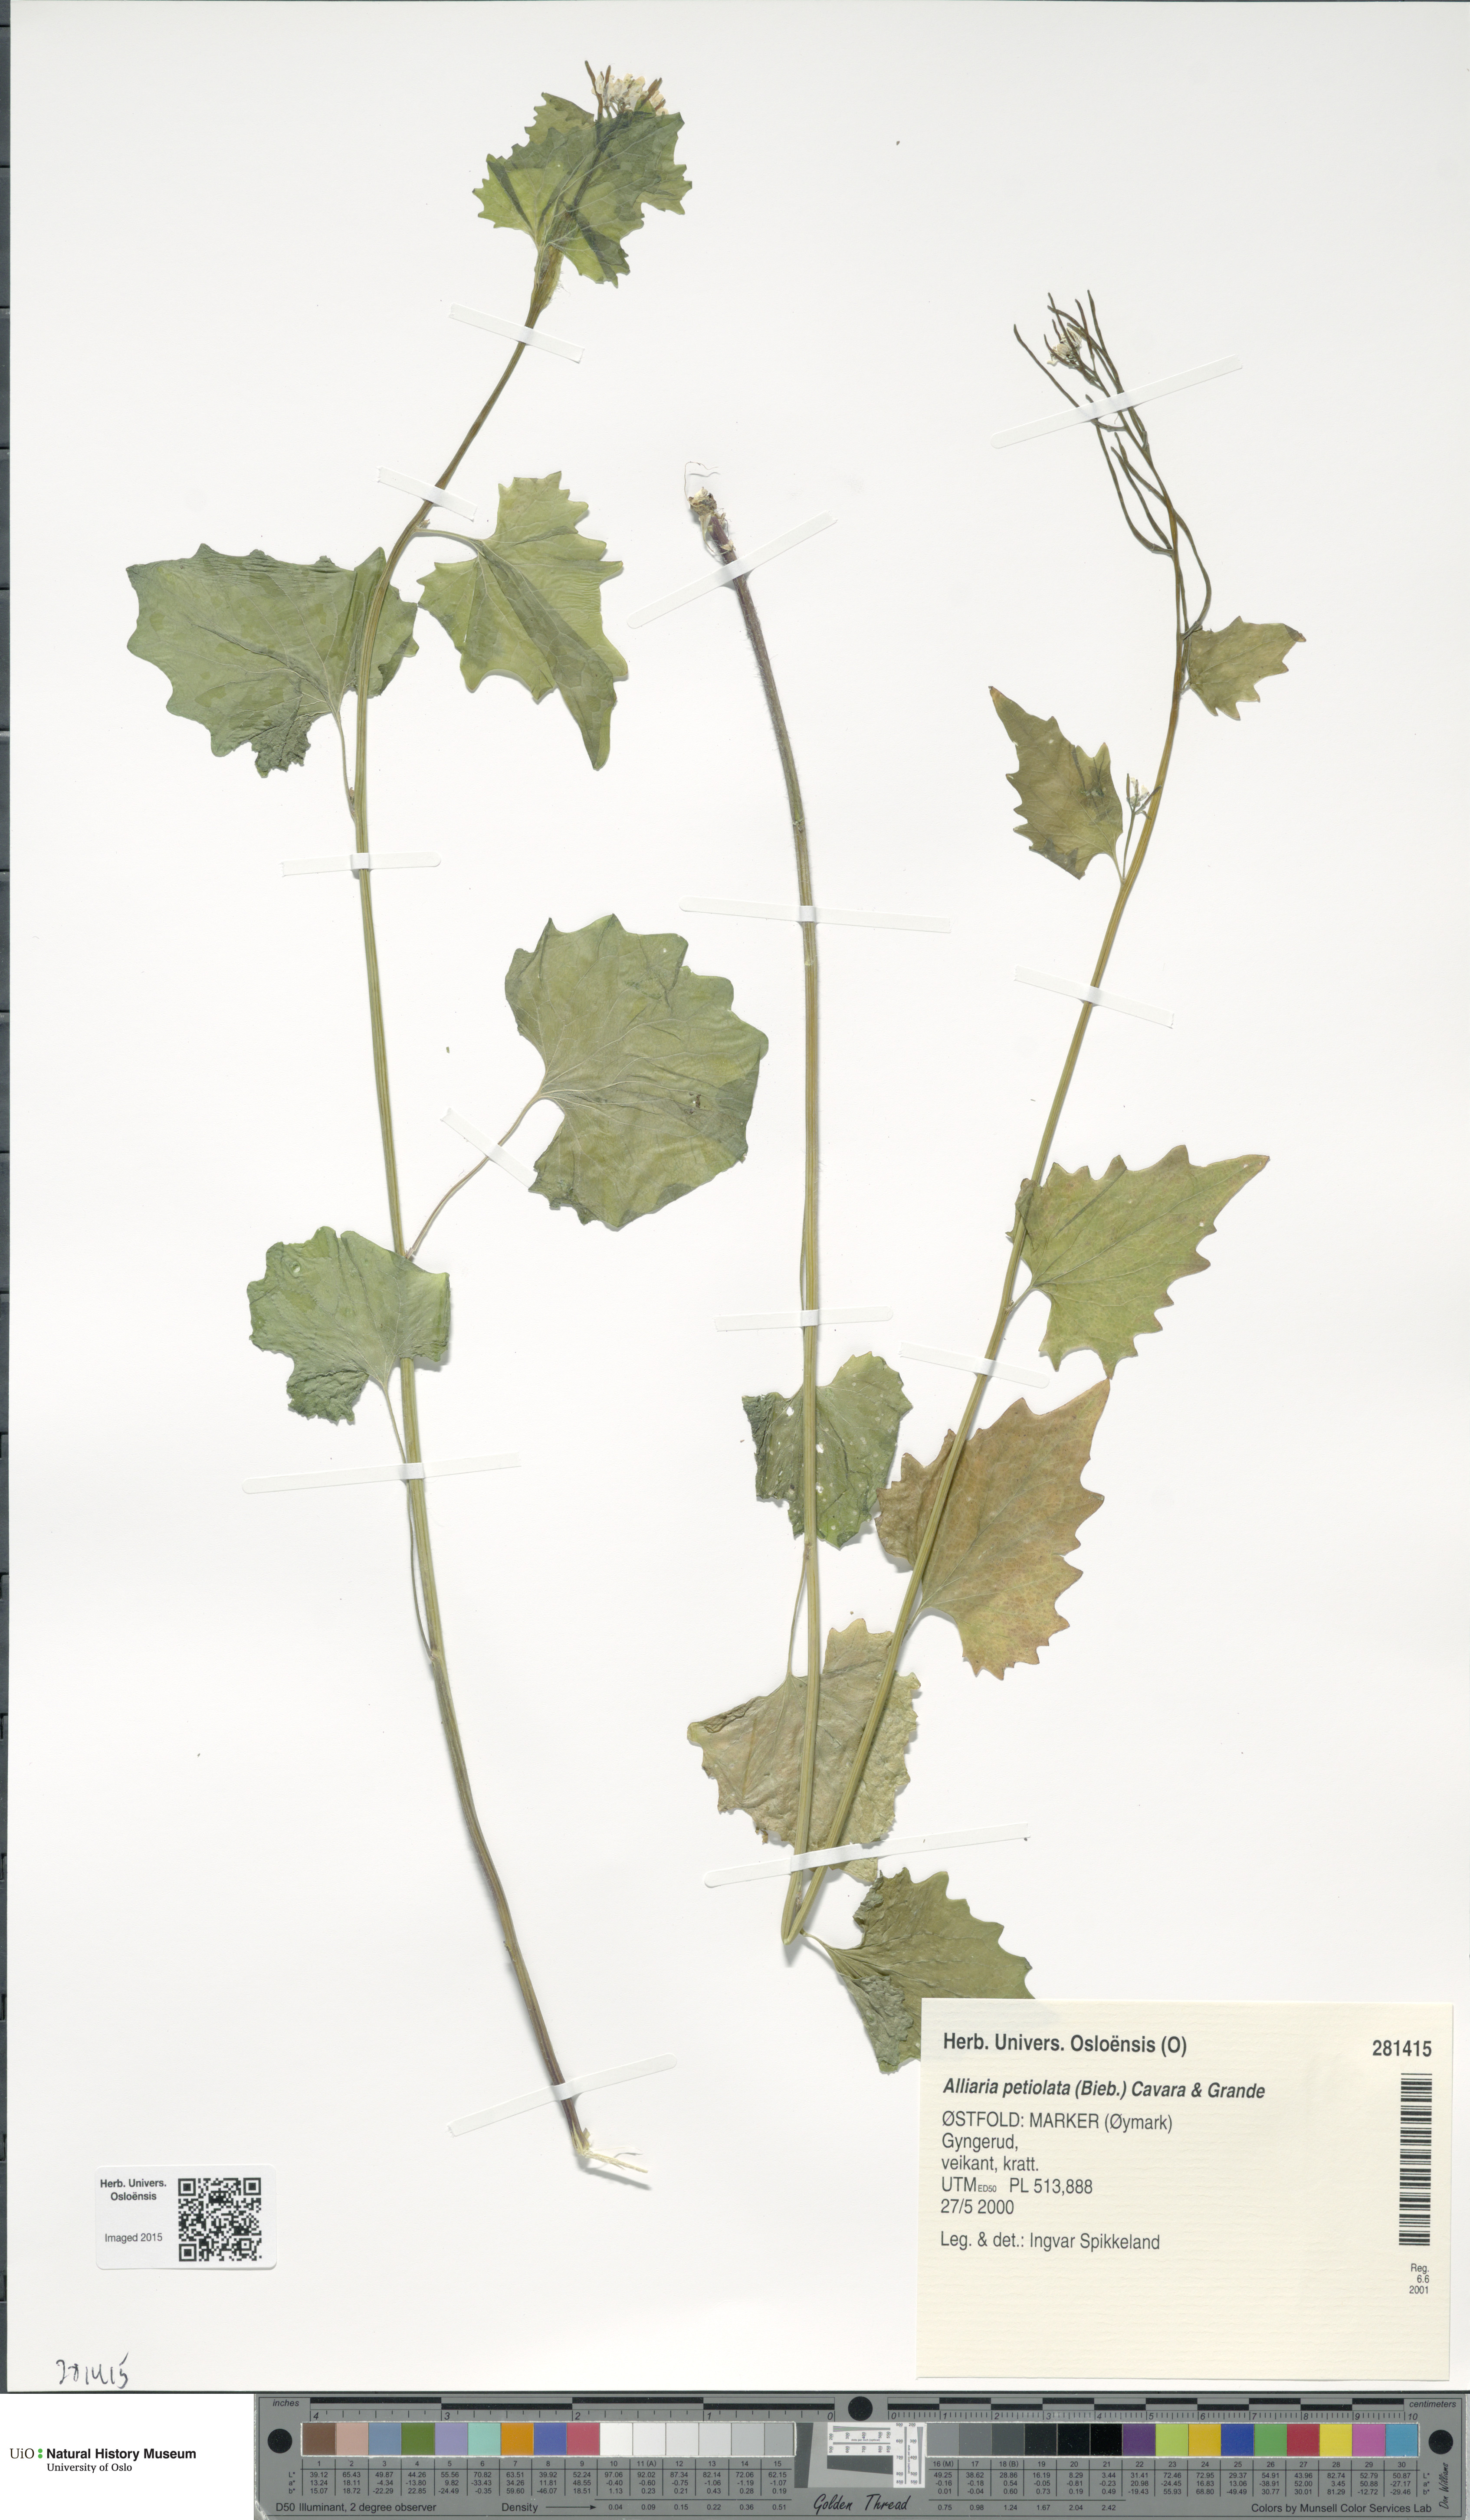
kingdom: Plantae
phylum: Tracheophyta
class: Magnoliopsida
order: Brassicales
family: Brassicaceae
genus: Alliaria
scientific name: Alliaria petiolata
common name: Garlic mustard
